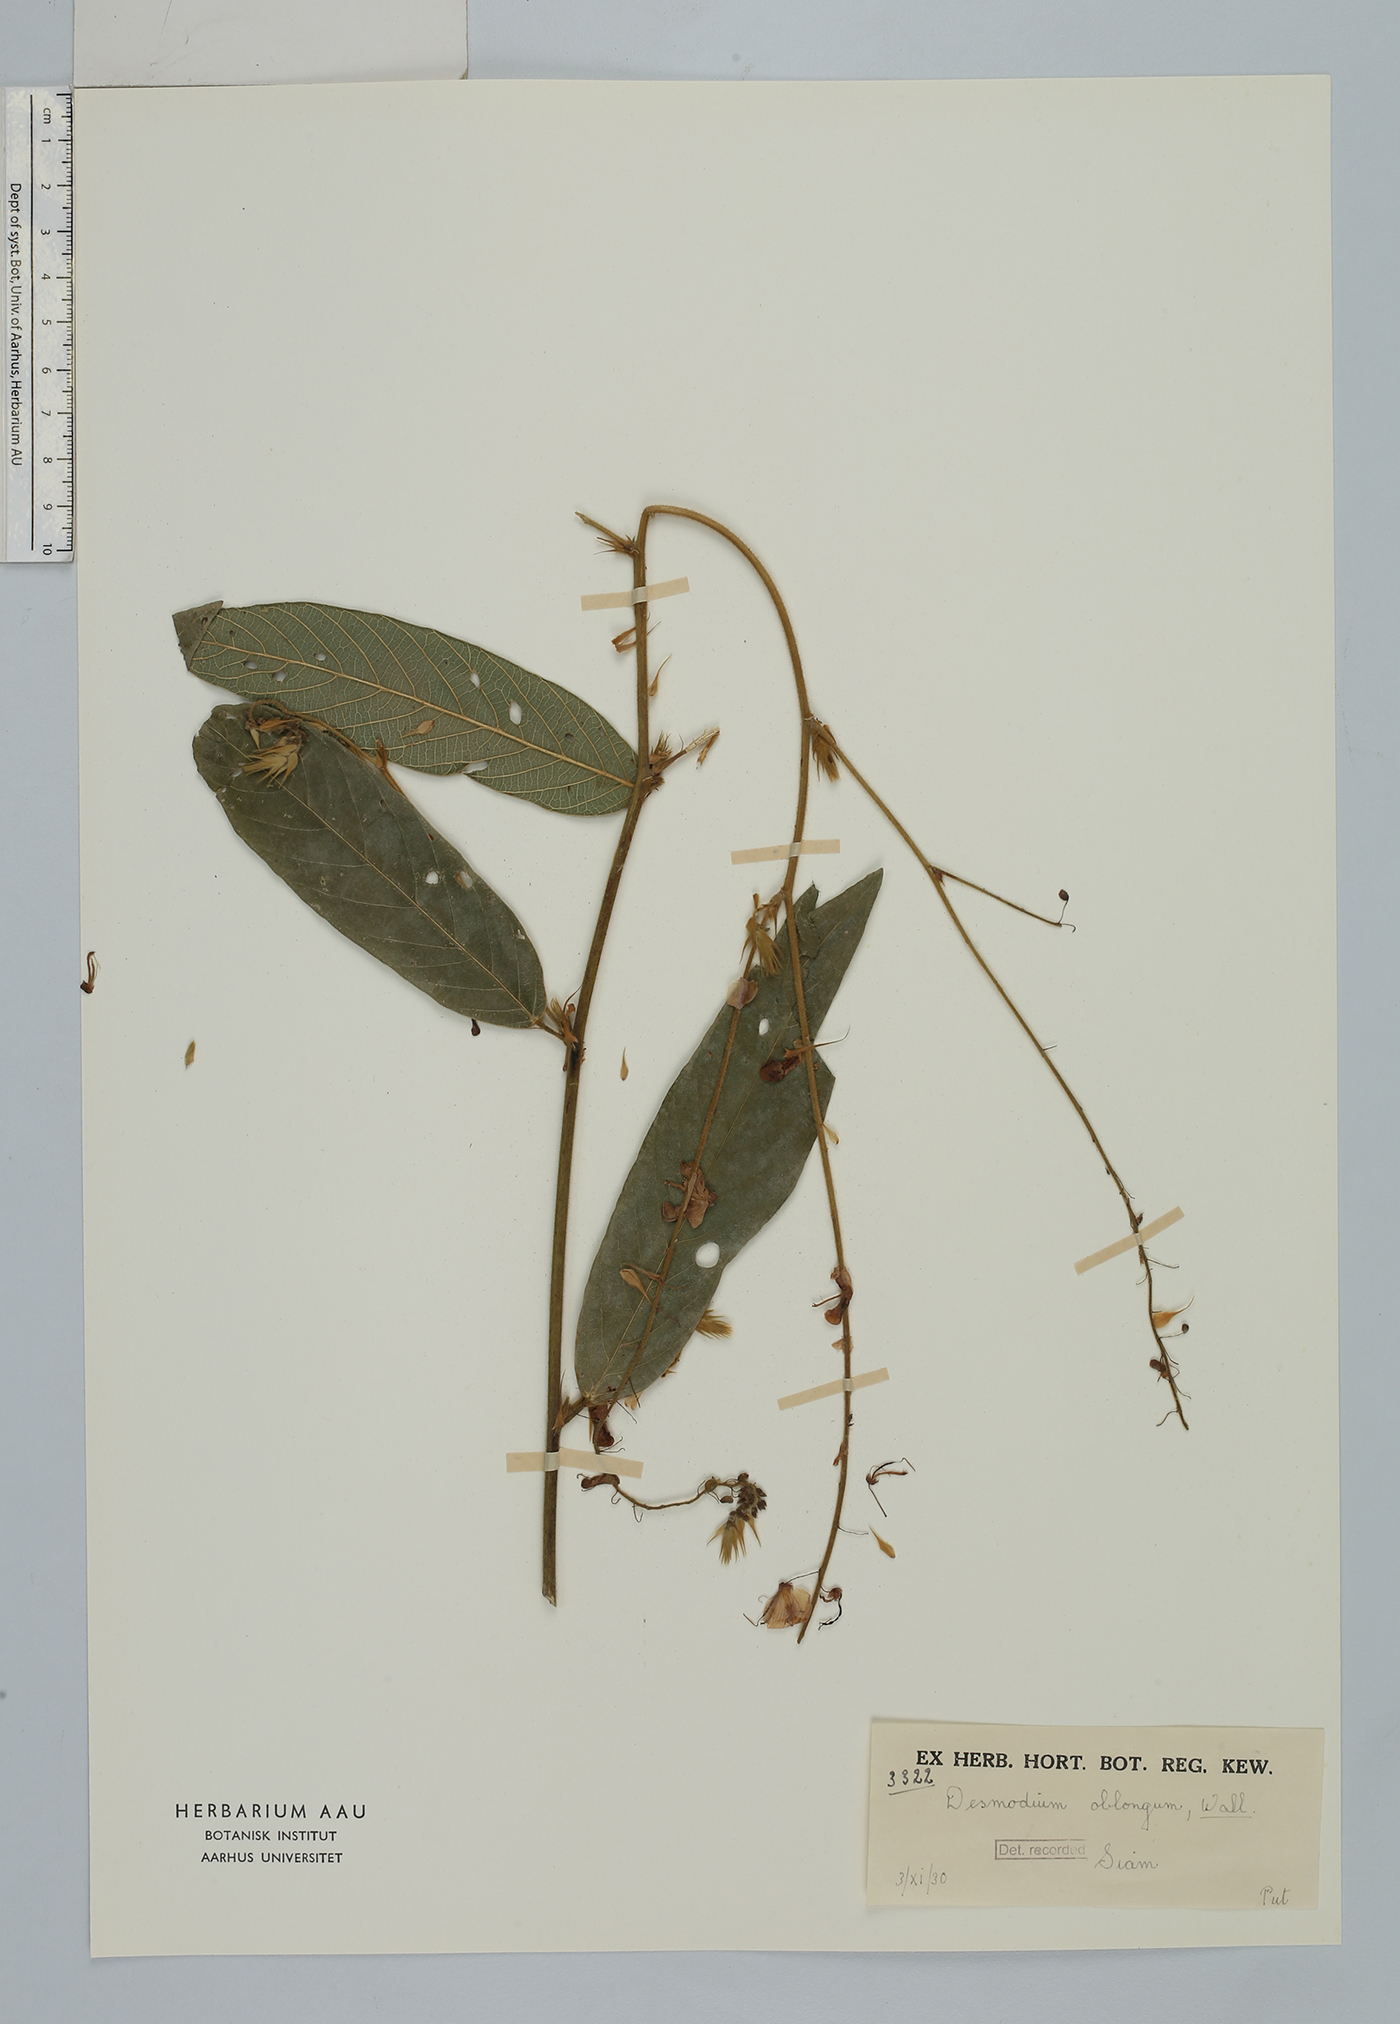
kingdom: Plantae
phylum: Tracheophyta
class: Magnoliopsida
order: Fabales
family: Fabaceae
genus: Uraria
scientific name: Uraria oblonga
